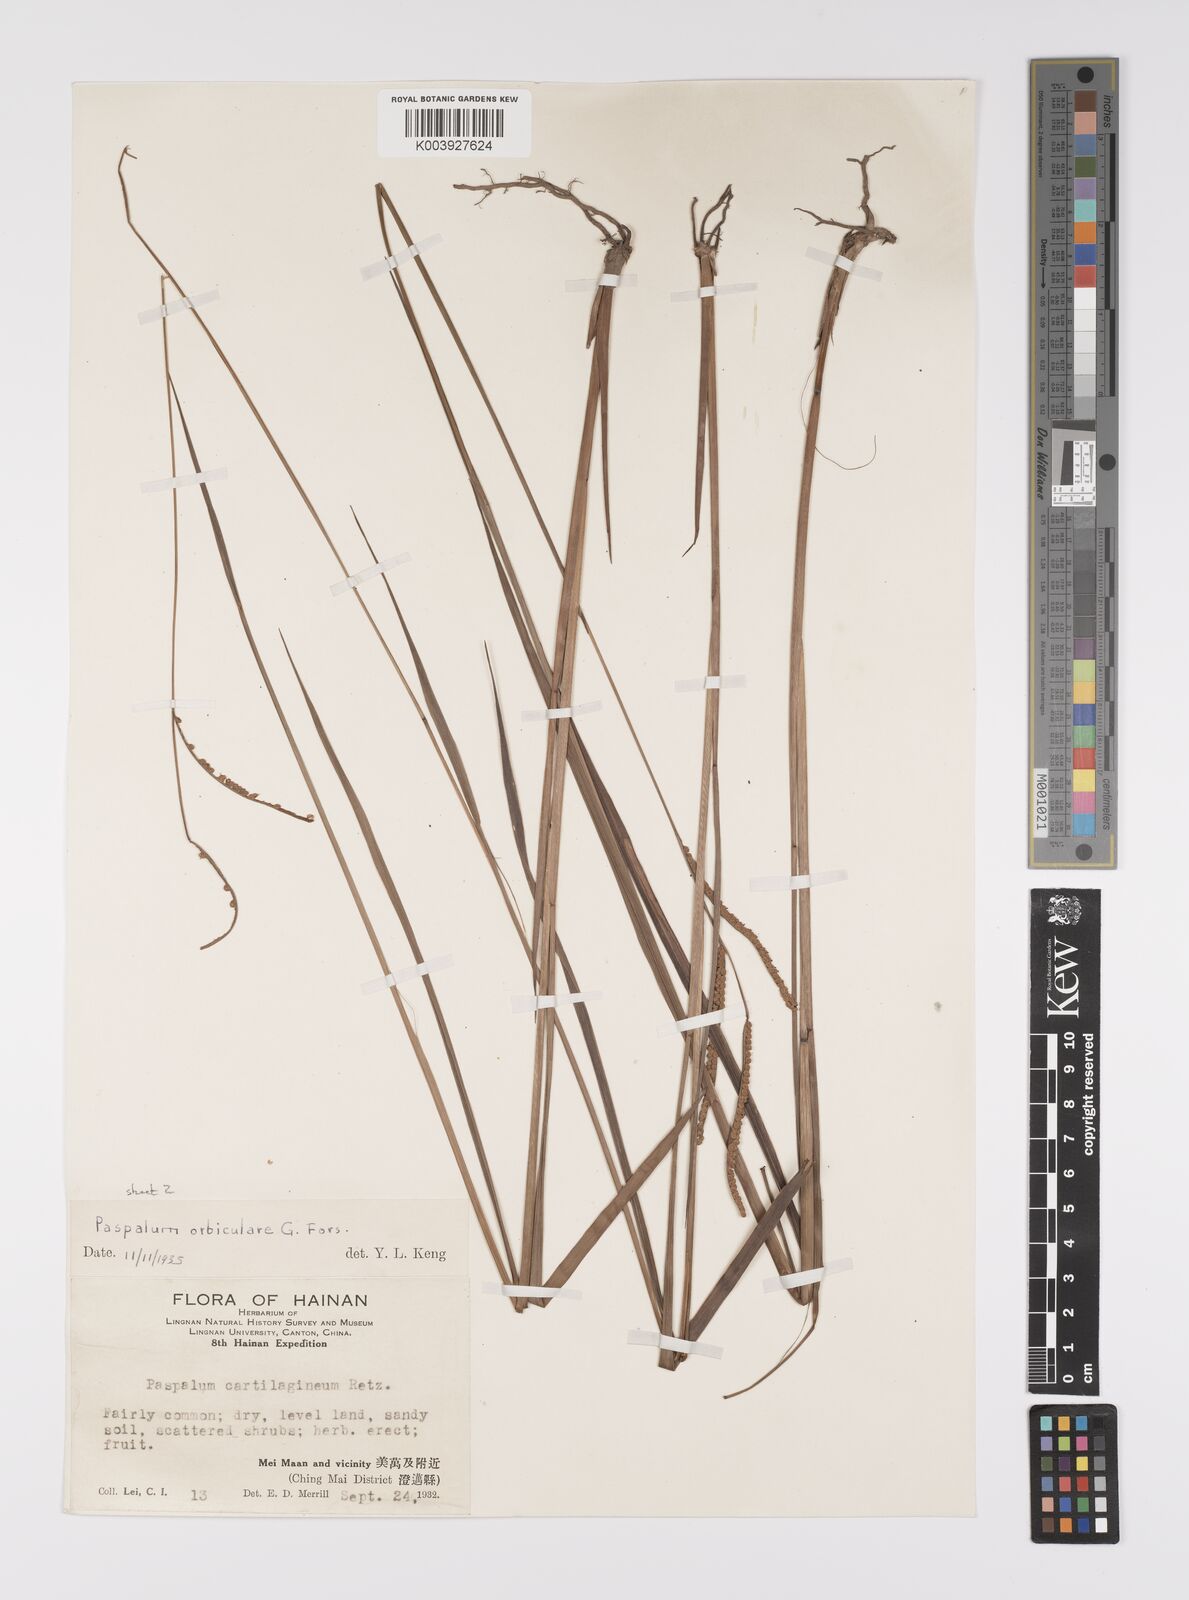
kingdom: Plantae
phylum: Tracheophyta
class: Liliopsida
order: Poales
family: Poaceae
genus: Paspalum
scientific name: Paspalum orbiculare
